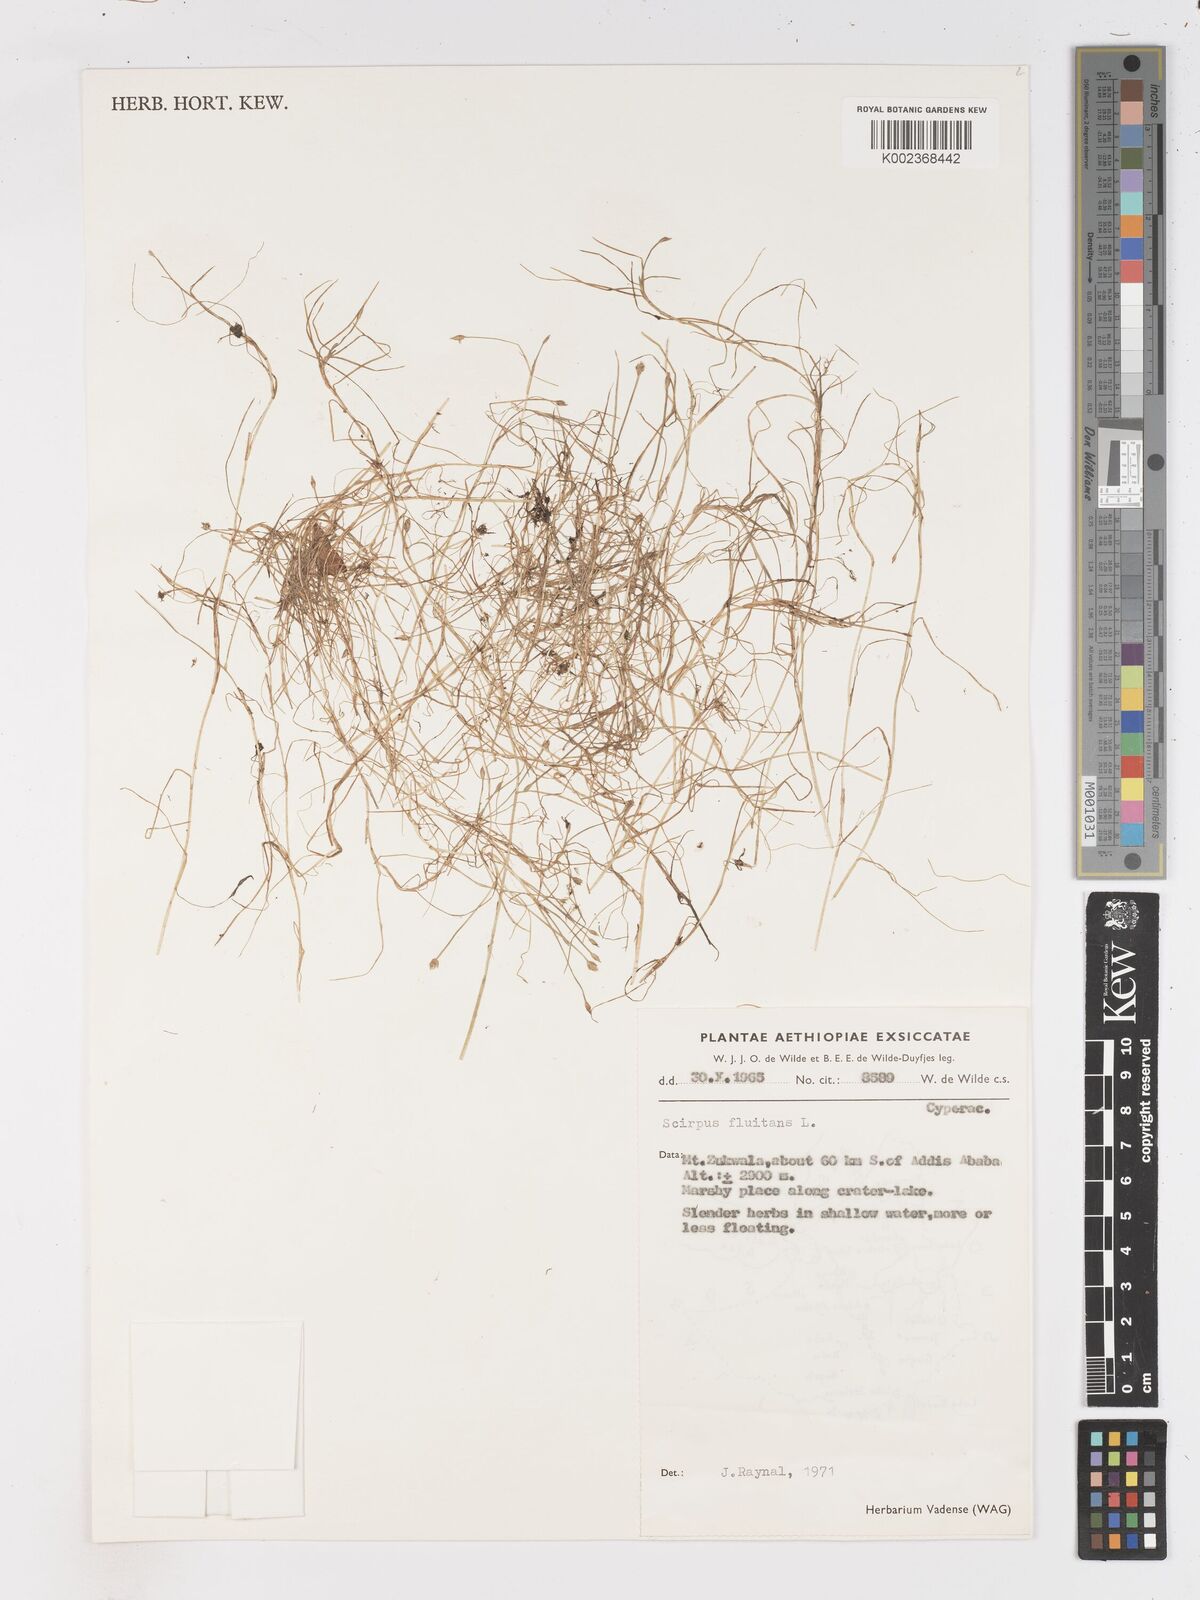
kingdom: Plantae
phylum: Tracheophyta
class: Liliopsida
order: Poales
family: Cyperaceae
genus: Isolepis
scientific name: Isolepis fluitans
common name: Floating club-rush
